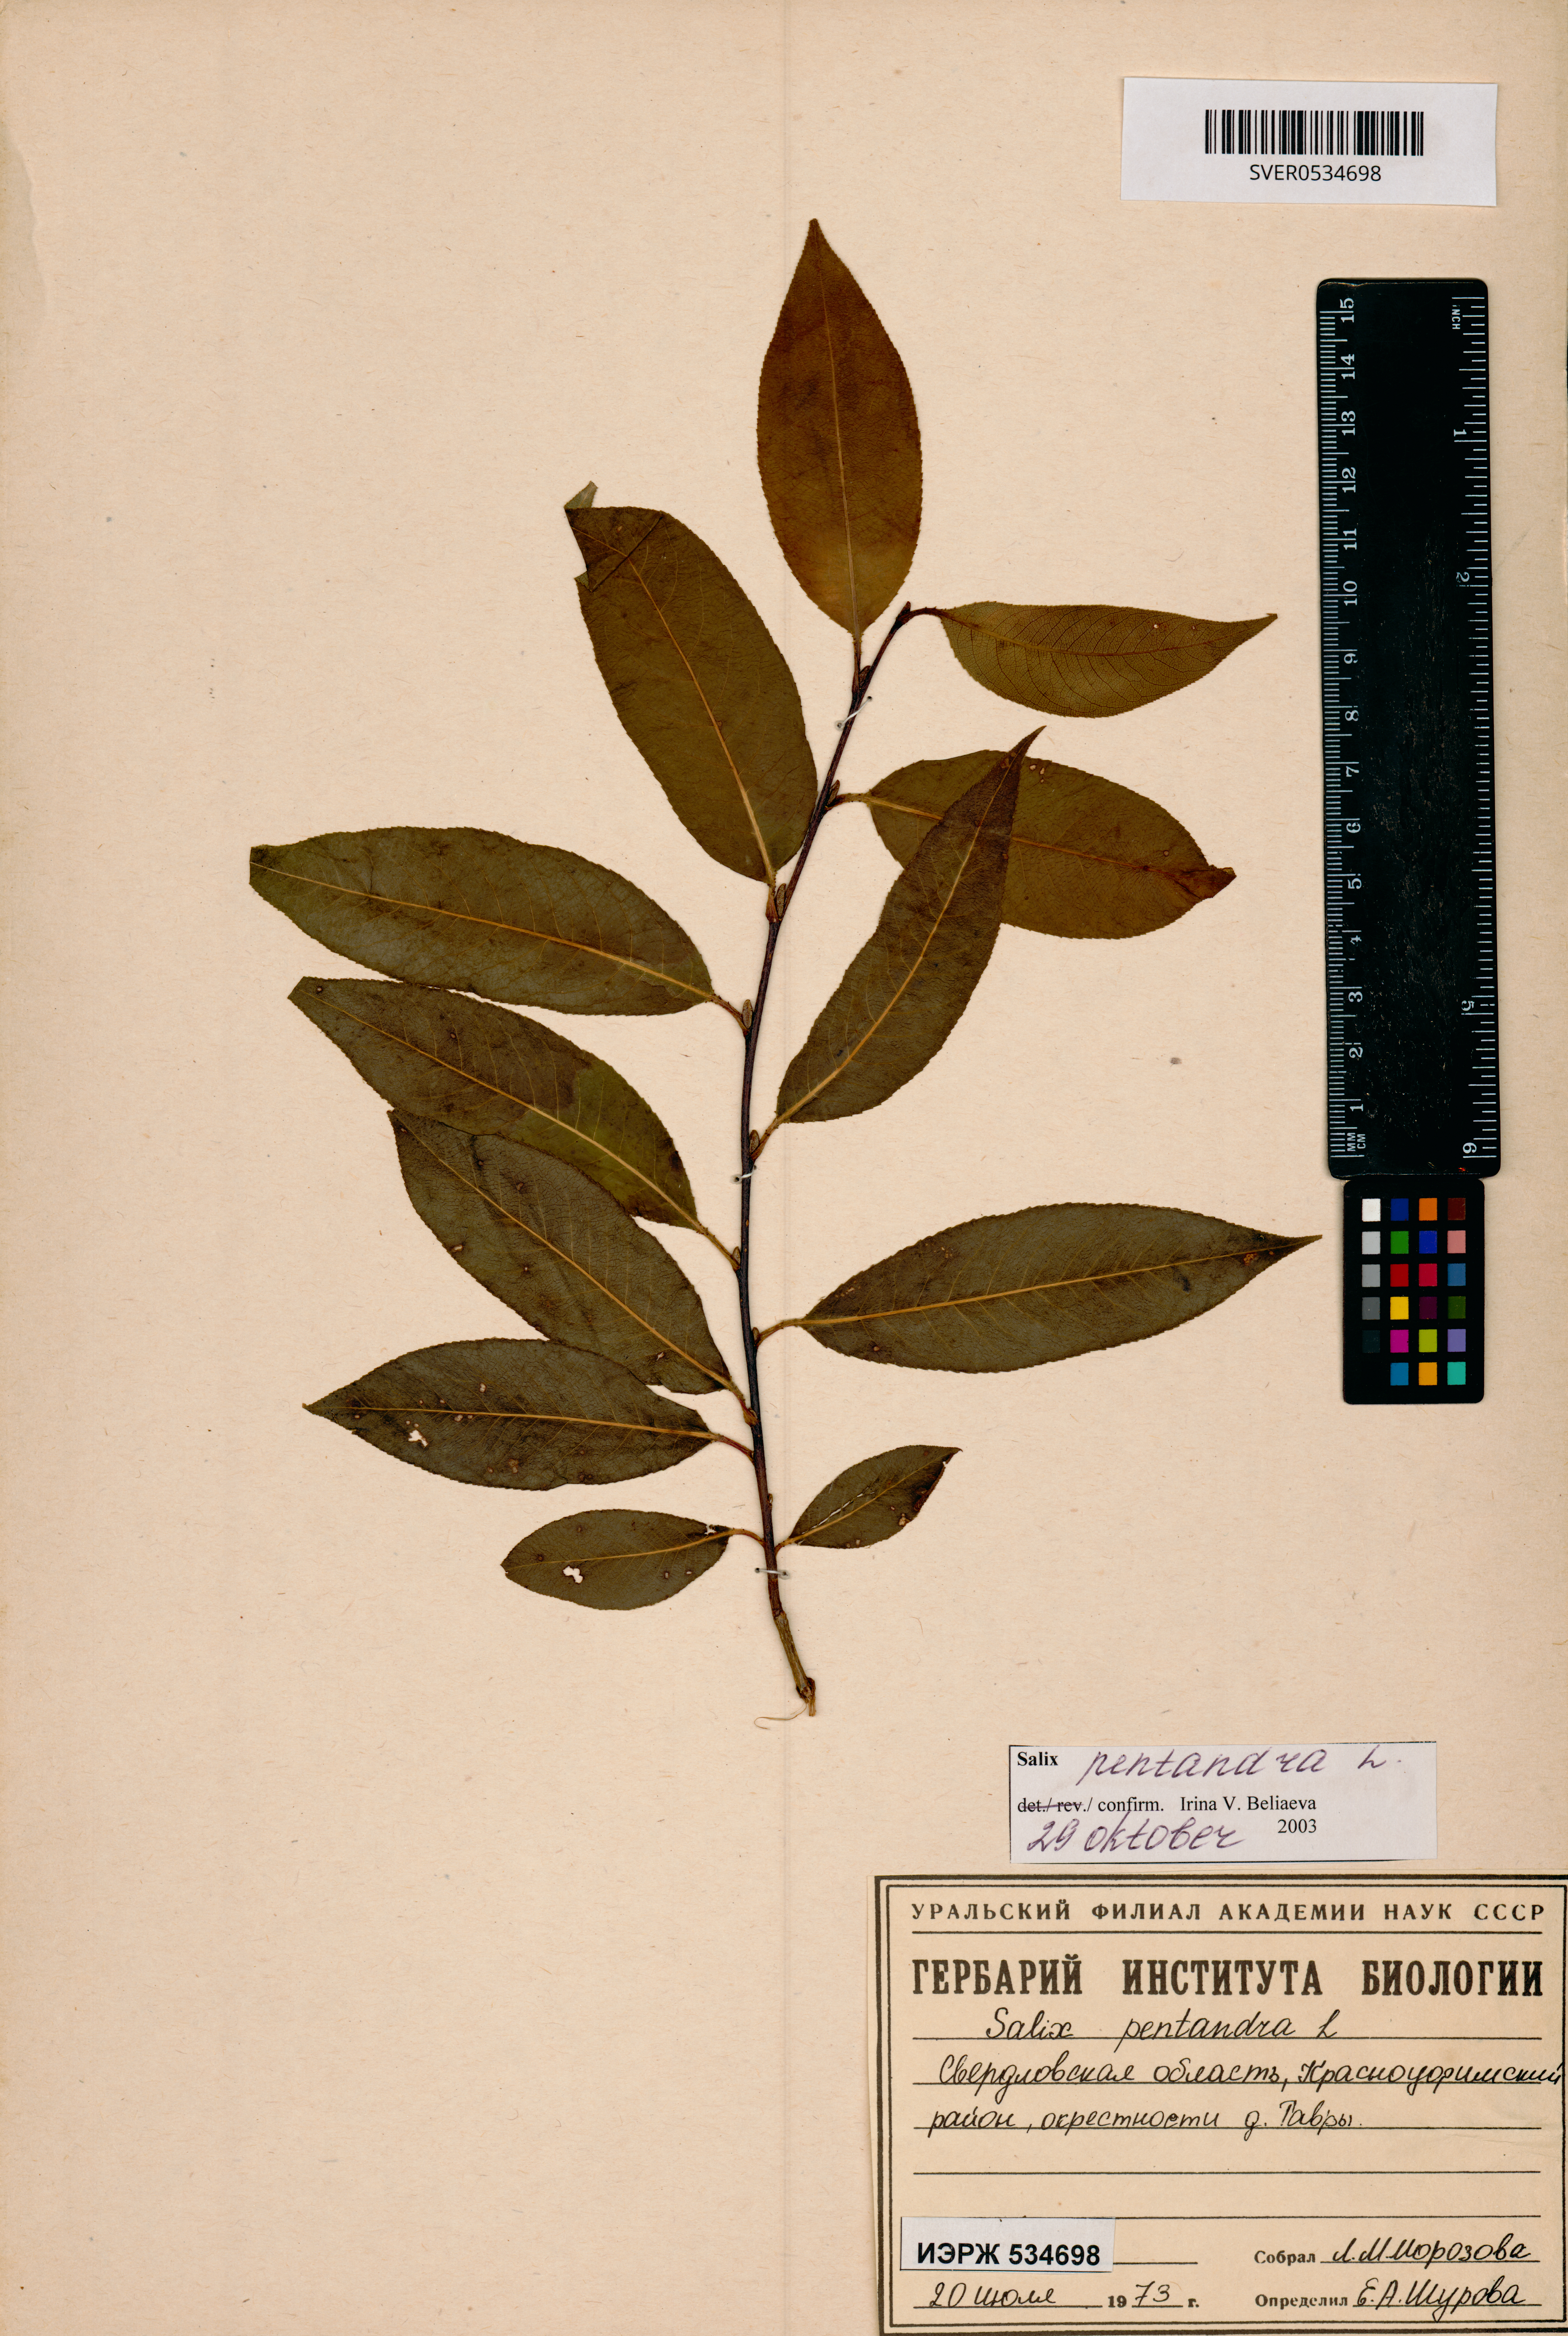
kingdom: Plantae
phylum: Tracheophyta
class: Magnoliopsida
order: Malpighiales
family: Salicaceae
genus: Salix
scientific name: Salix pentandra
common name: Bay willow
